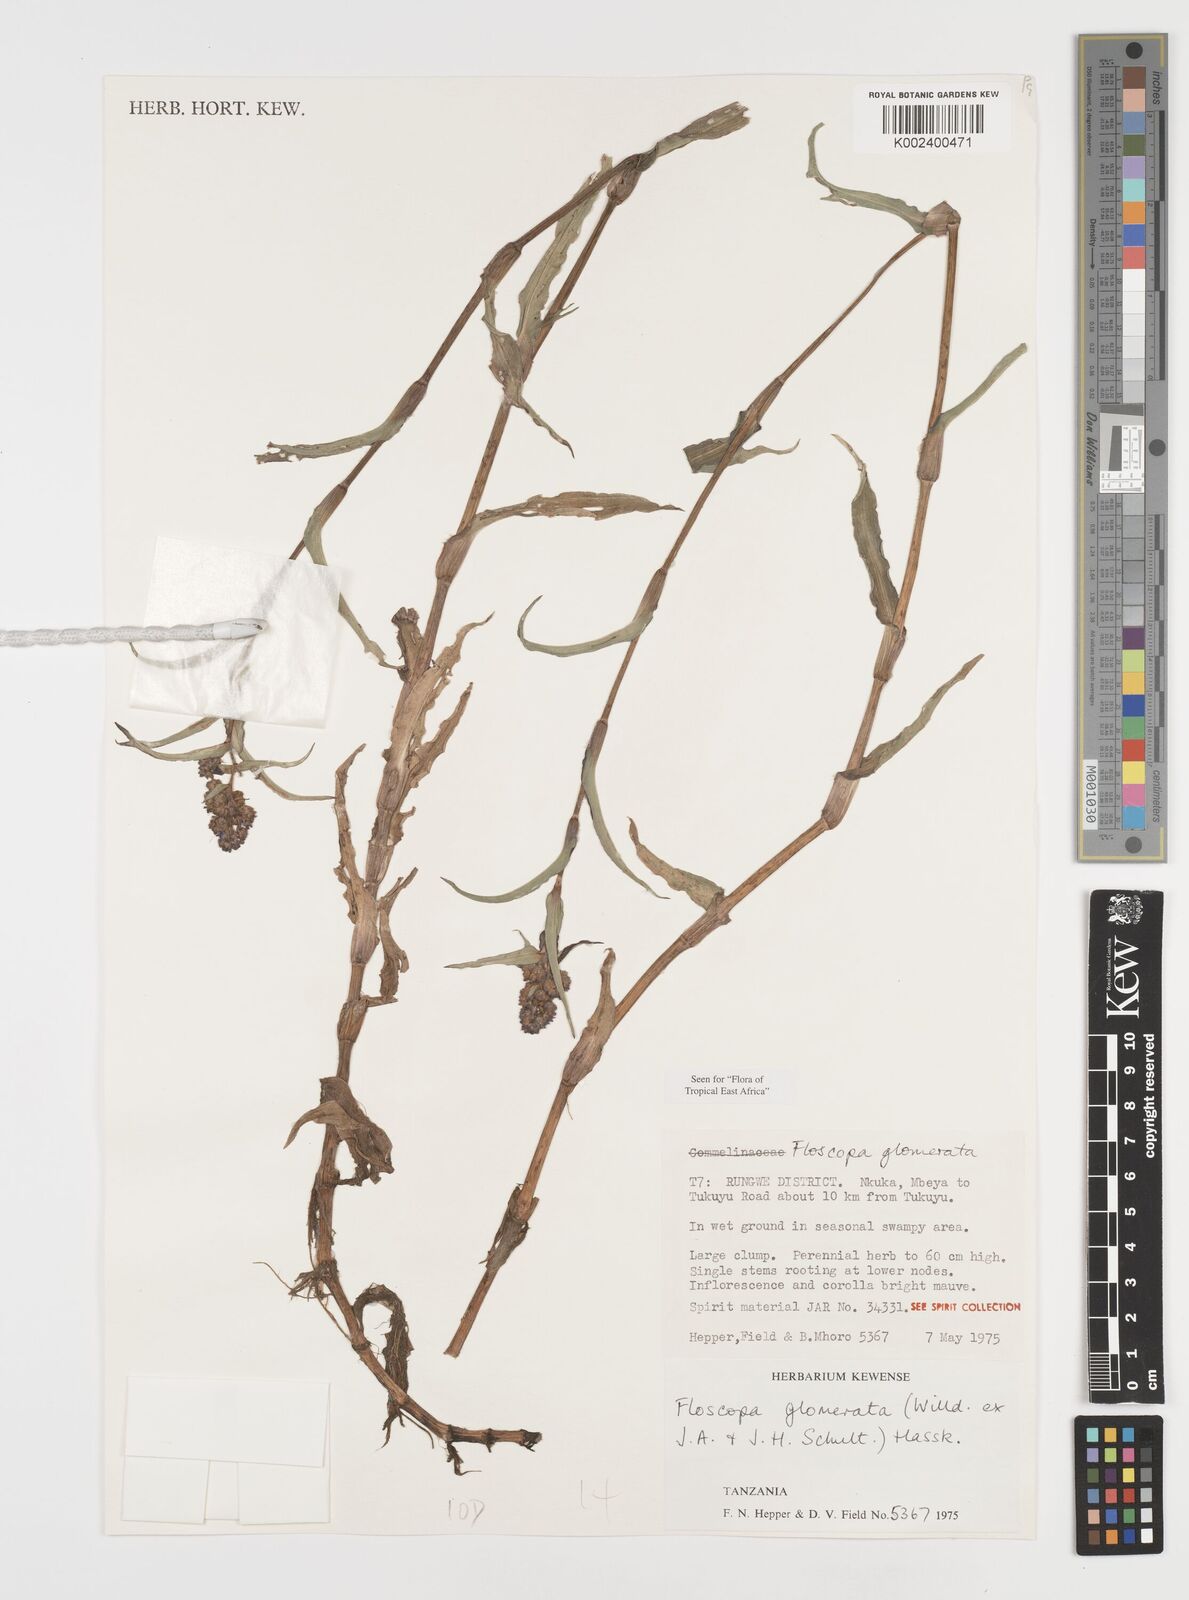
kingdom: Plantae
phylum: Tracheophyta
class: Liliopsida
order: Commelinales
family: Commelinaceae
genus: Floscopa
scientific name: Floscopa glomerata
